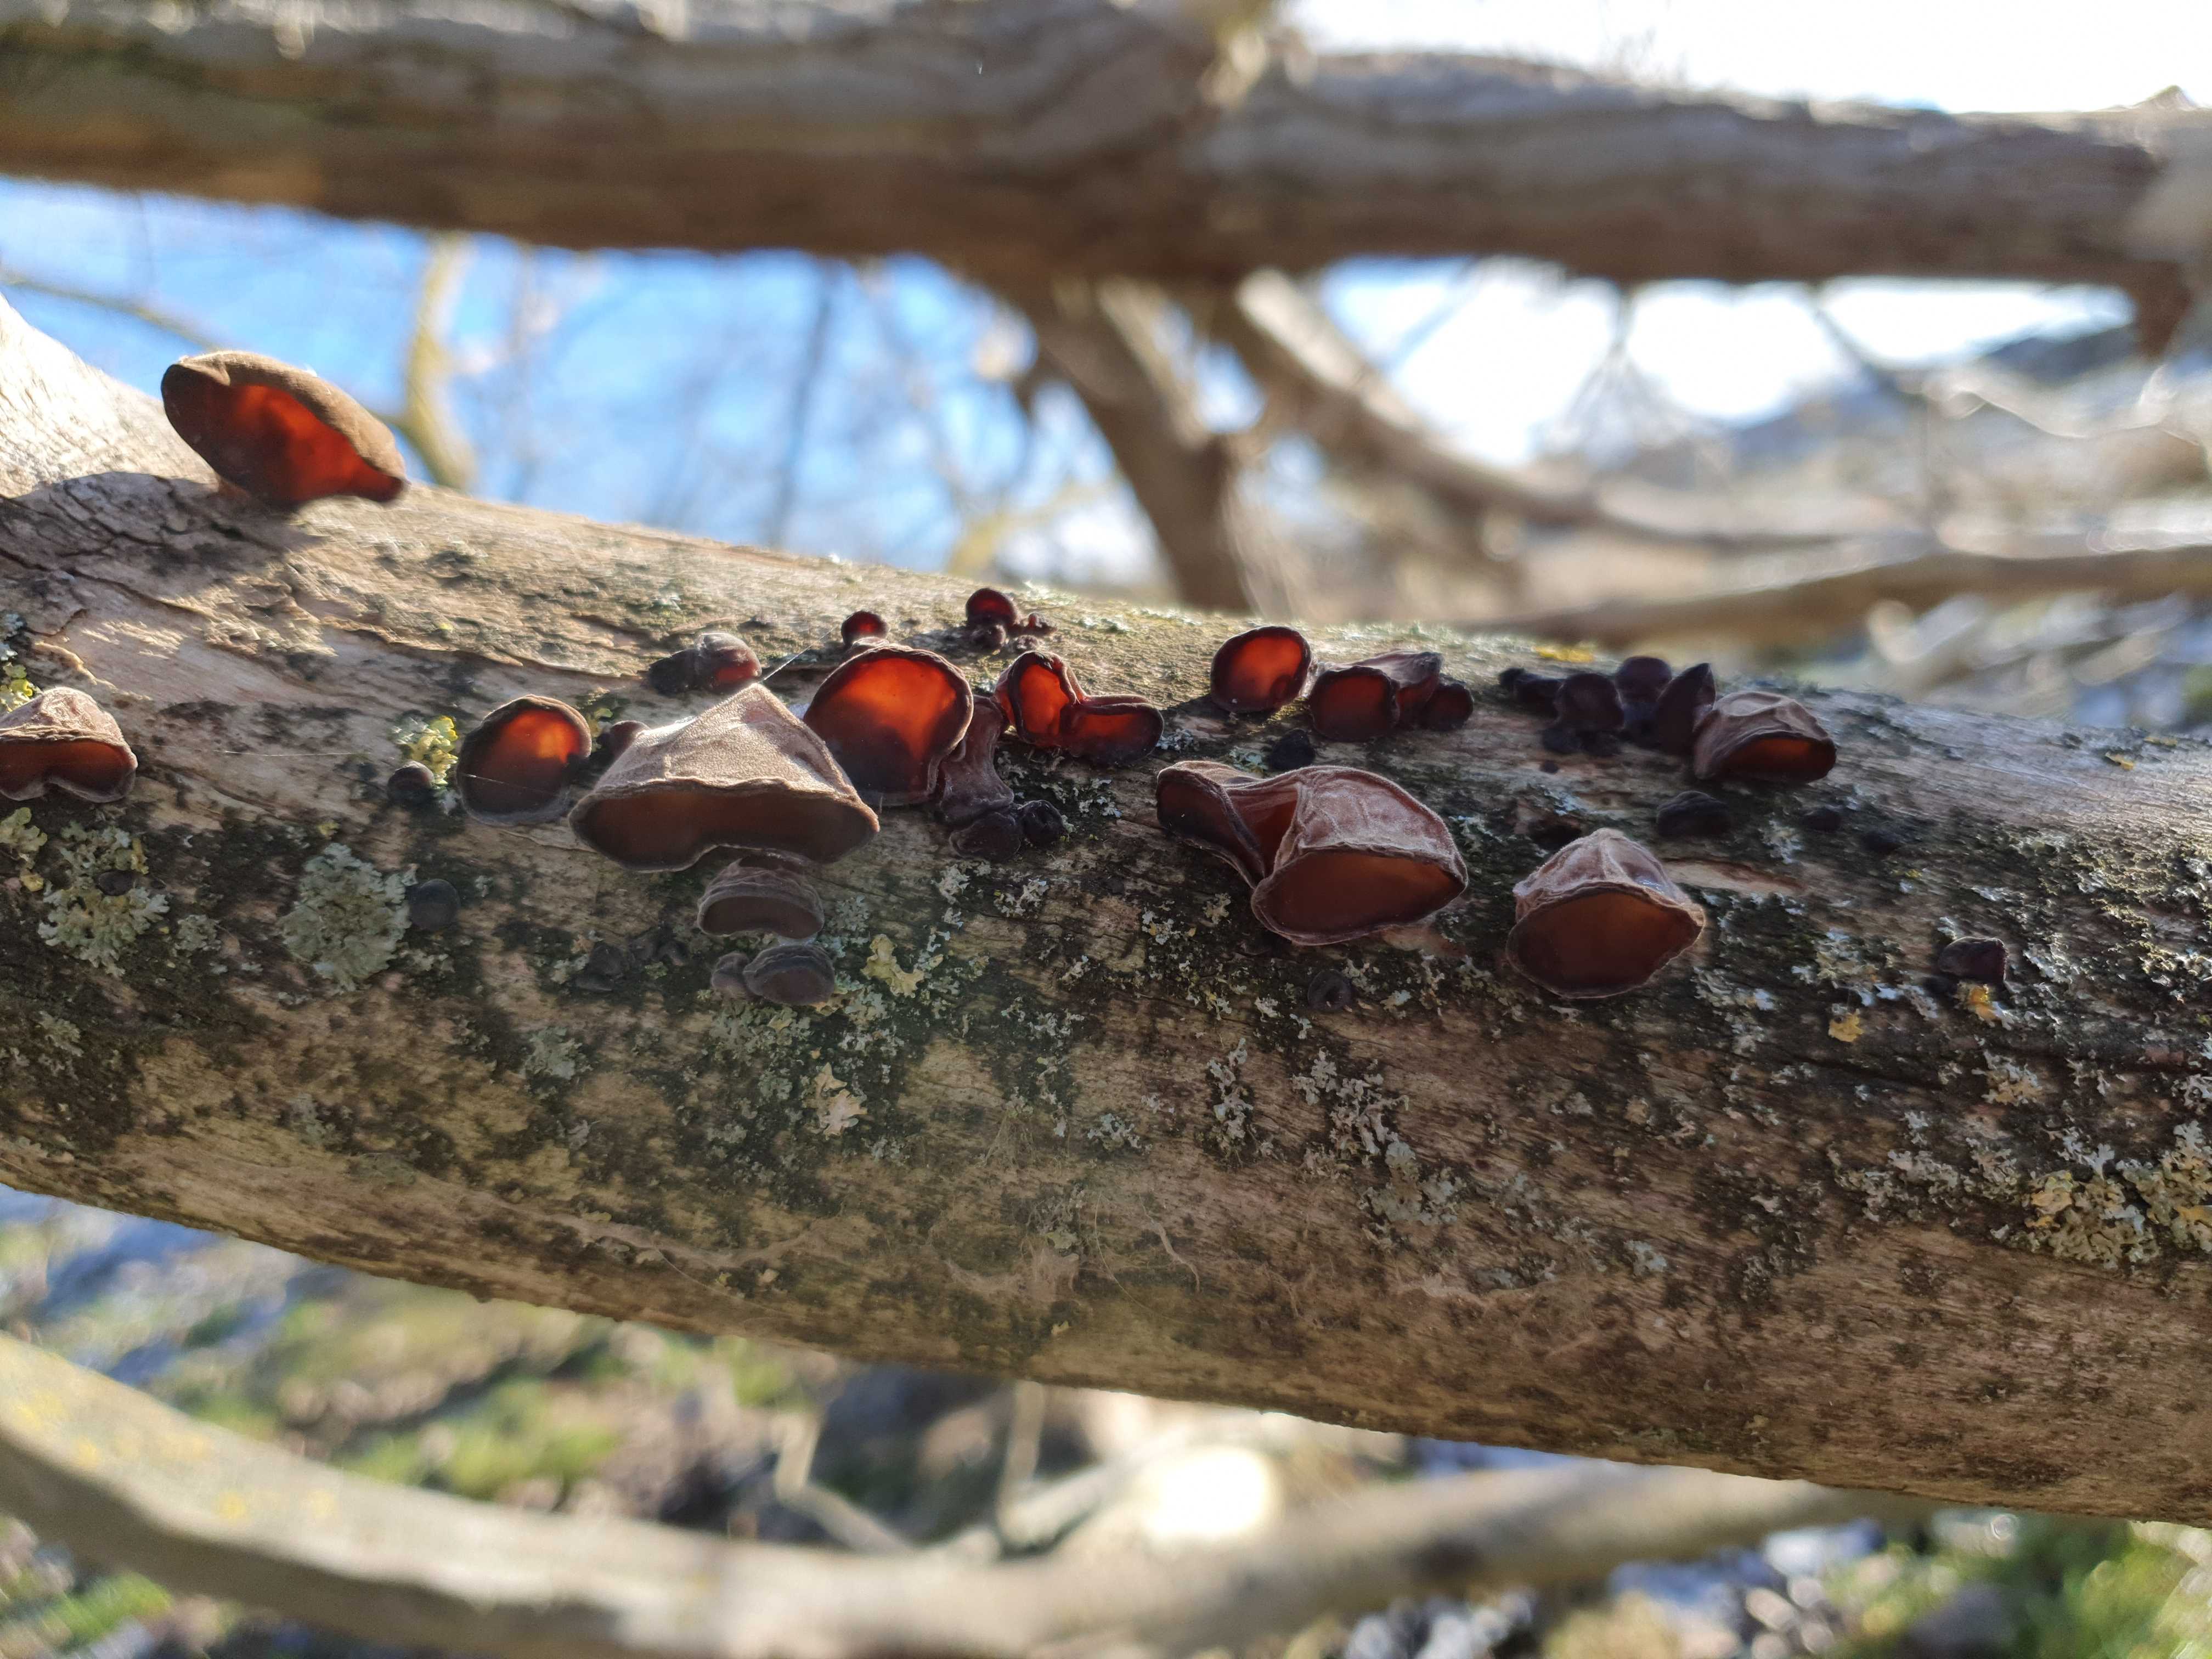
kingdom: Fungi
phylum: Basidiomycota
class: Agaricomycetes
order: Auriculariales
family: Auriculariaceae
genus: Auricularia
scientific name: Auricularia auricula-judae
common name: almindelig judasøre
